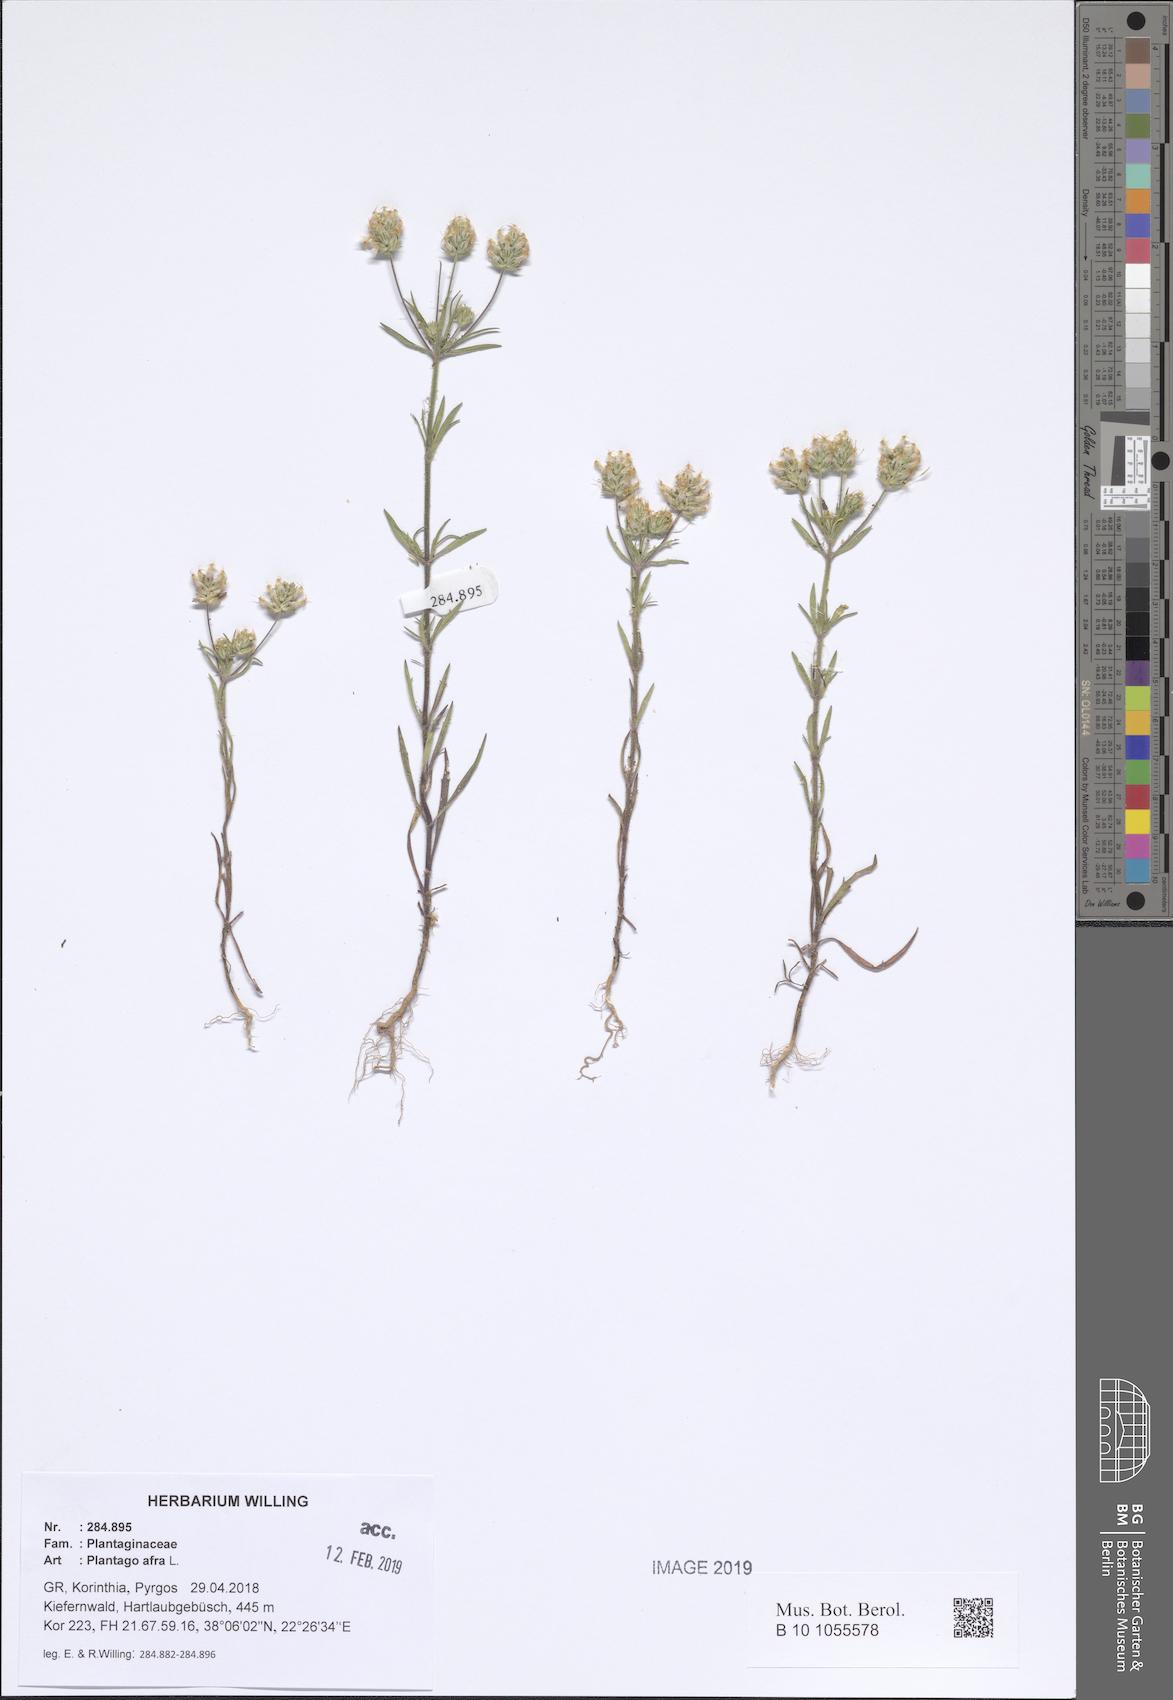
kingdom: Plantae
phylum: Tracheophyta
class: Magnoliopsida
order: Lamiales
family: Plantaginaceae
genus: Plantago
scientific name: Plantago afra
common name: Glandular plantain
